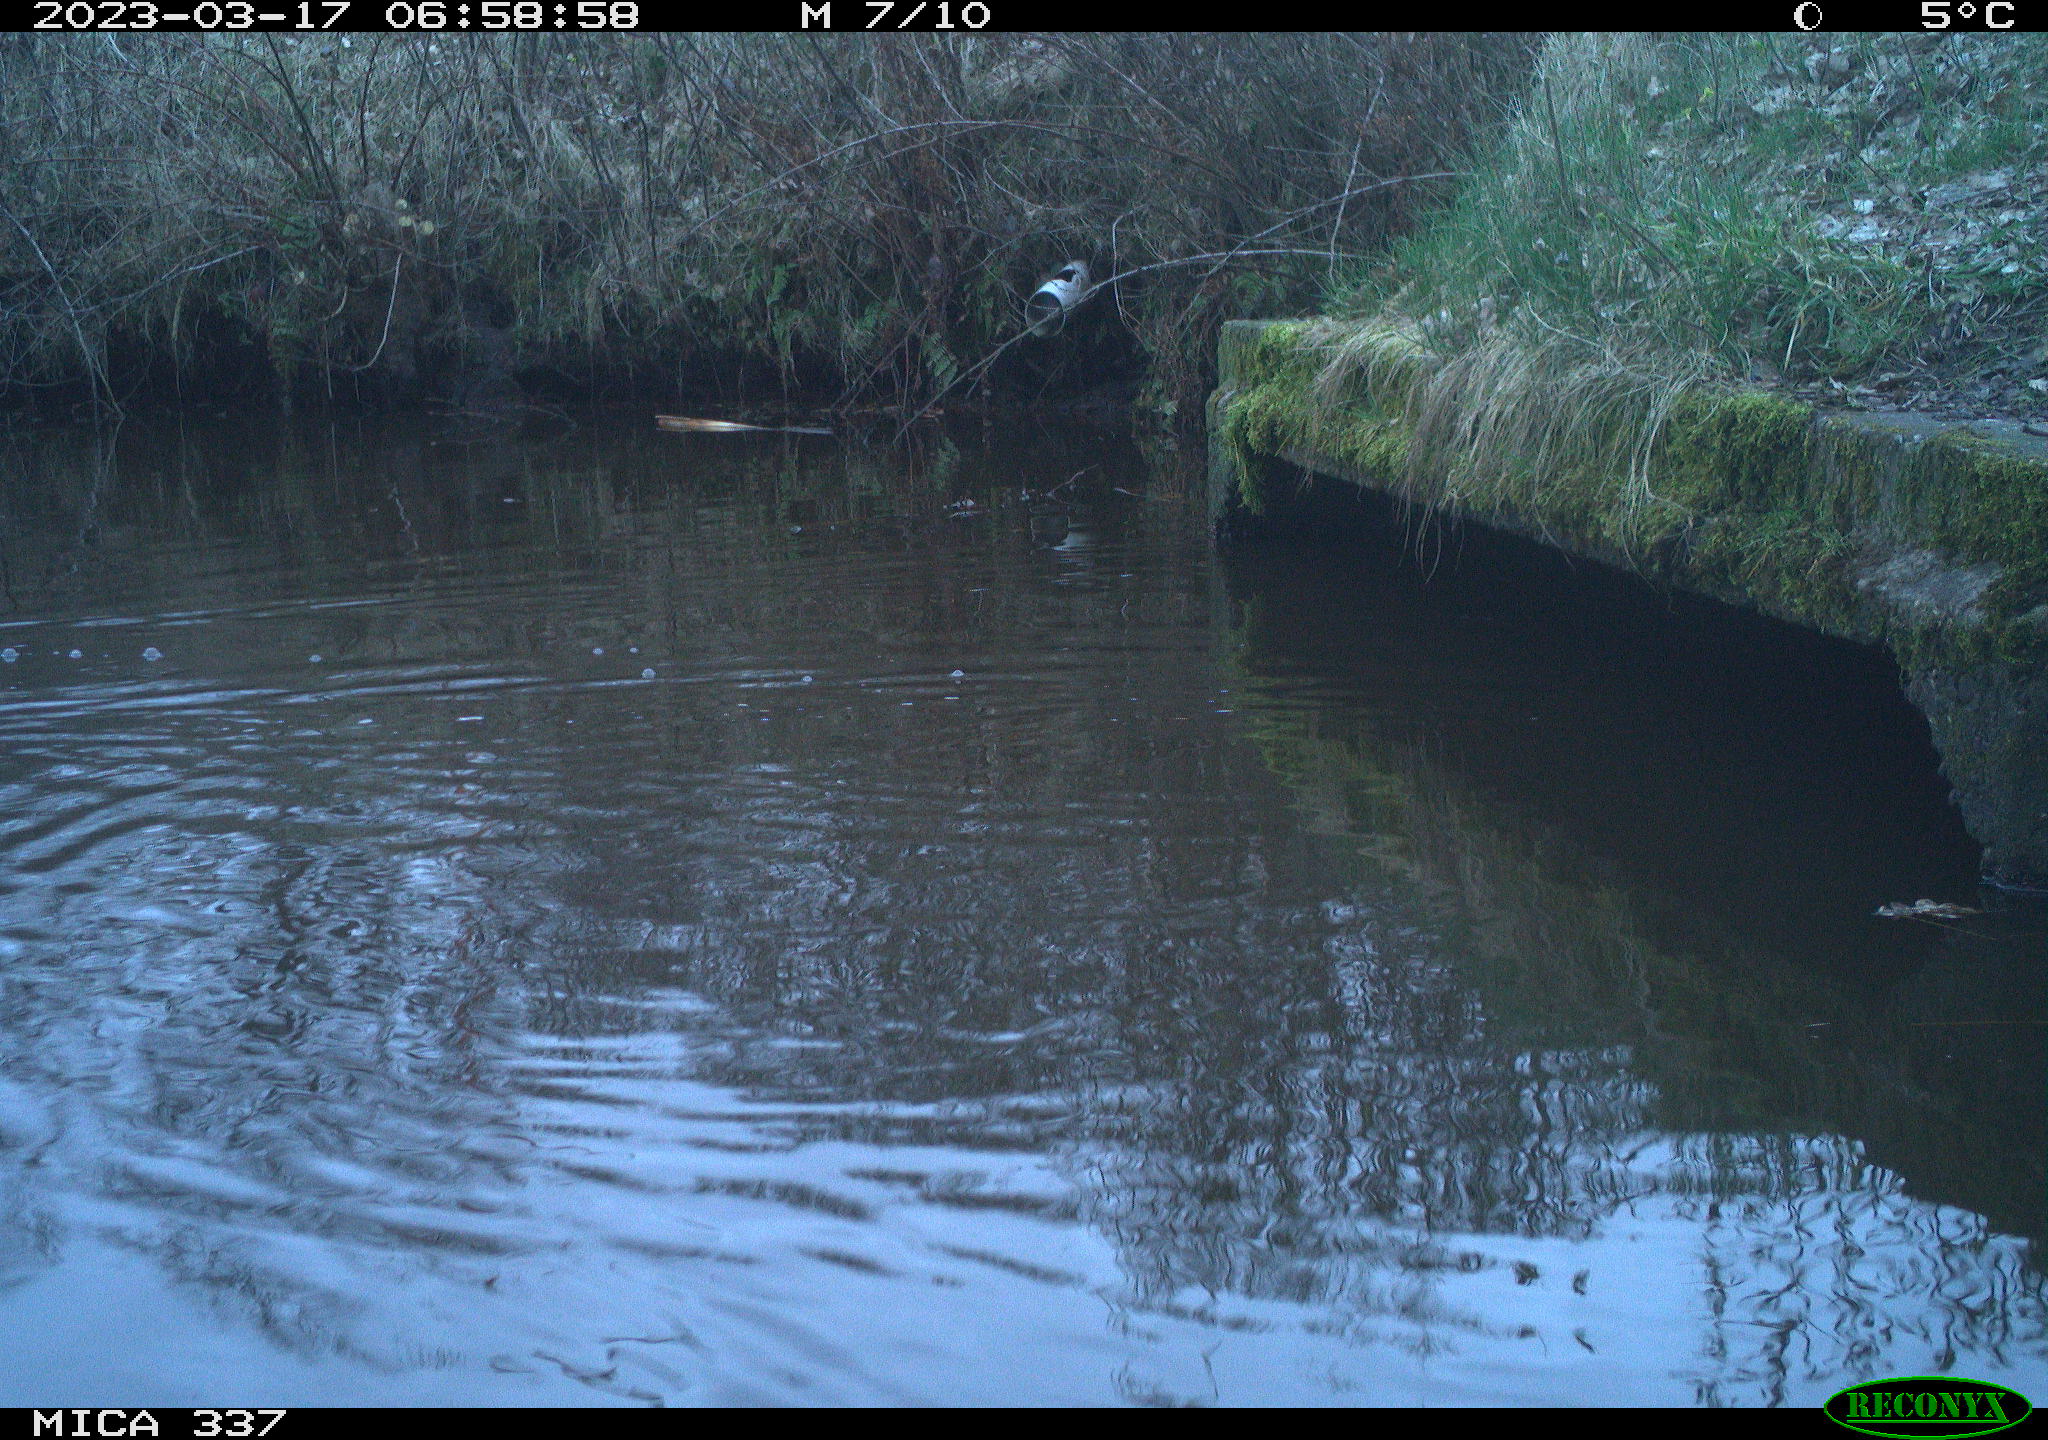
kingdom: Animalia
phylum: Chordata
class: Aves
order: Anseriformes
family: Anatidae
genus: Anas
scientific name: Anas
